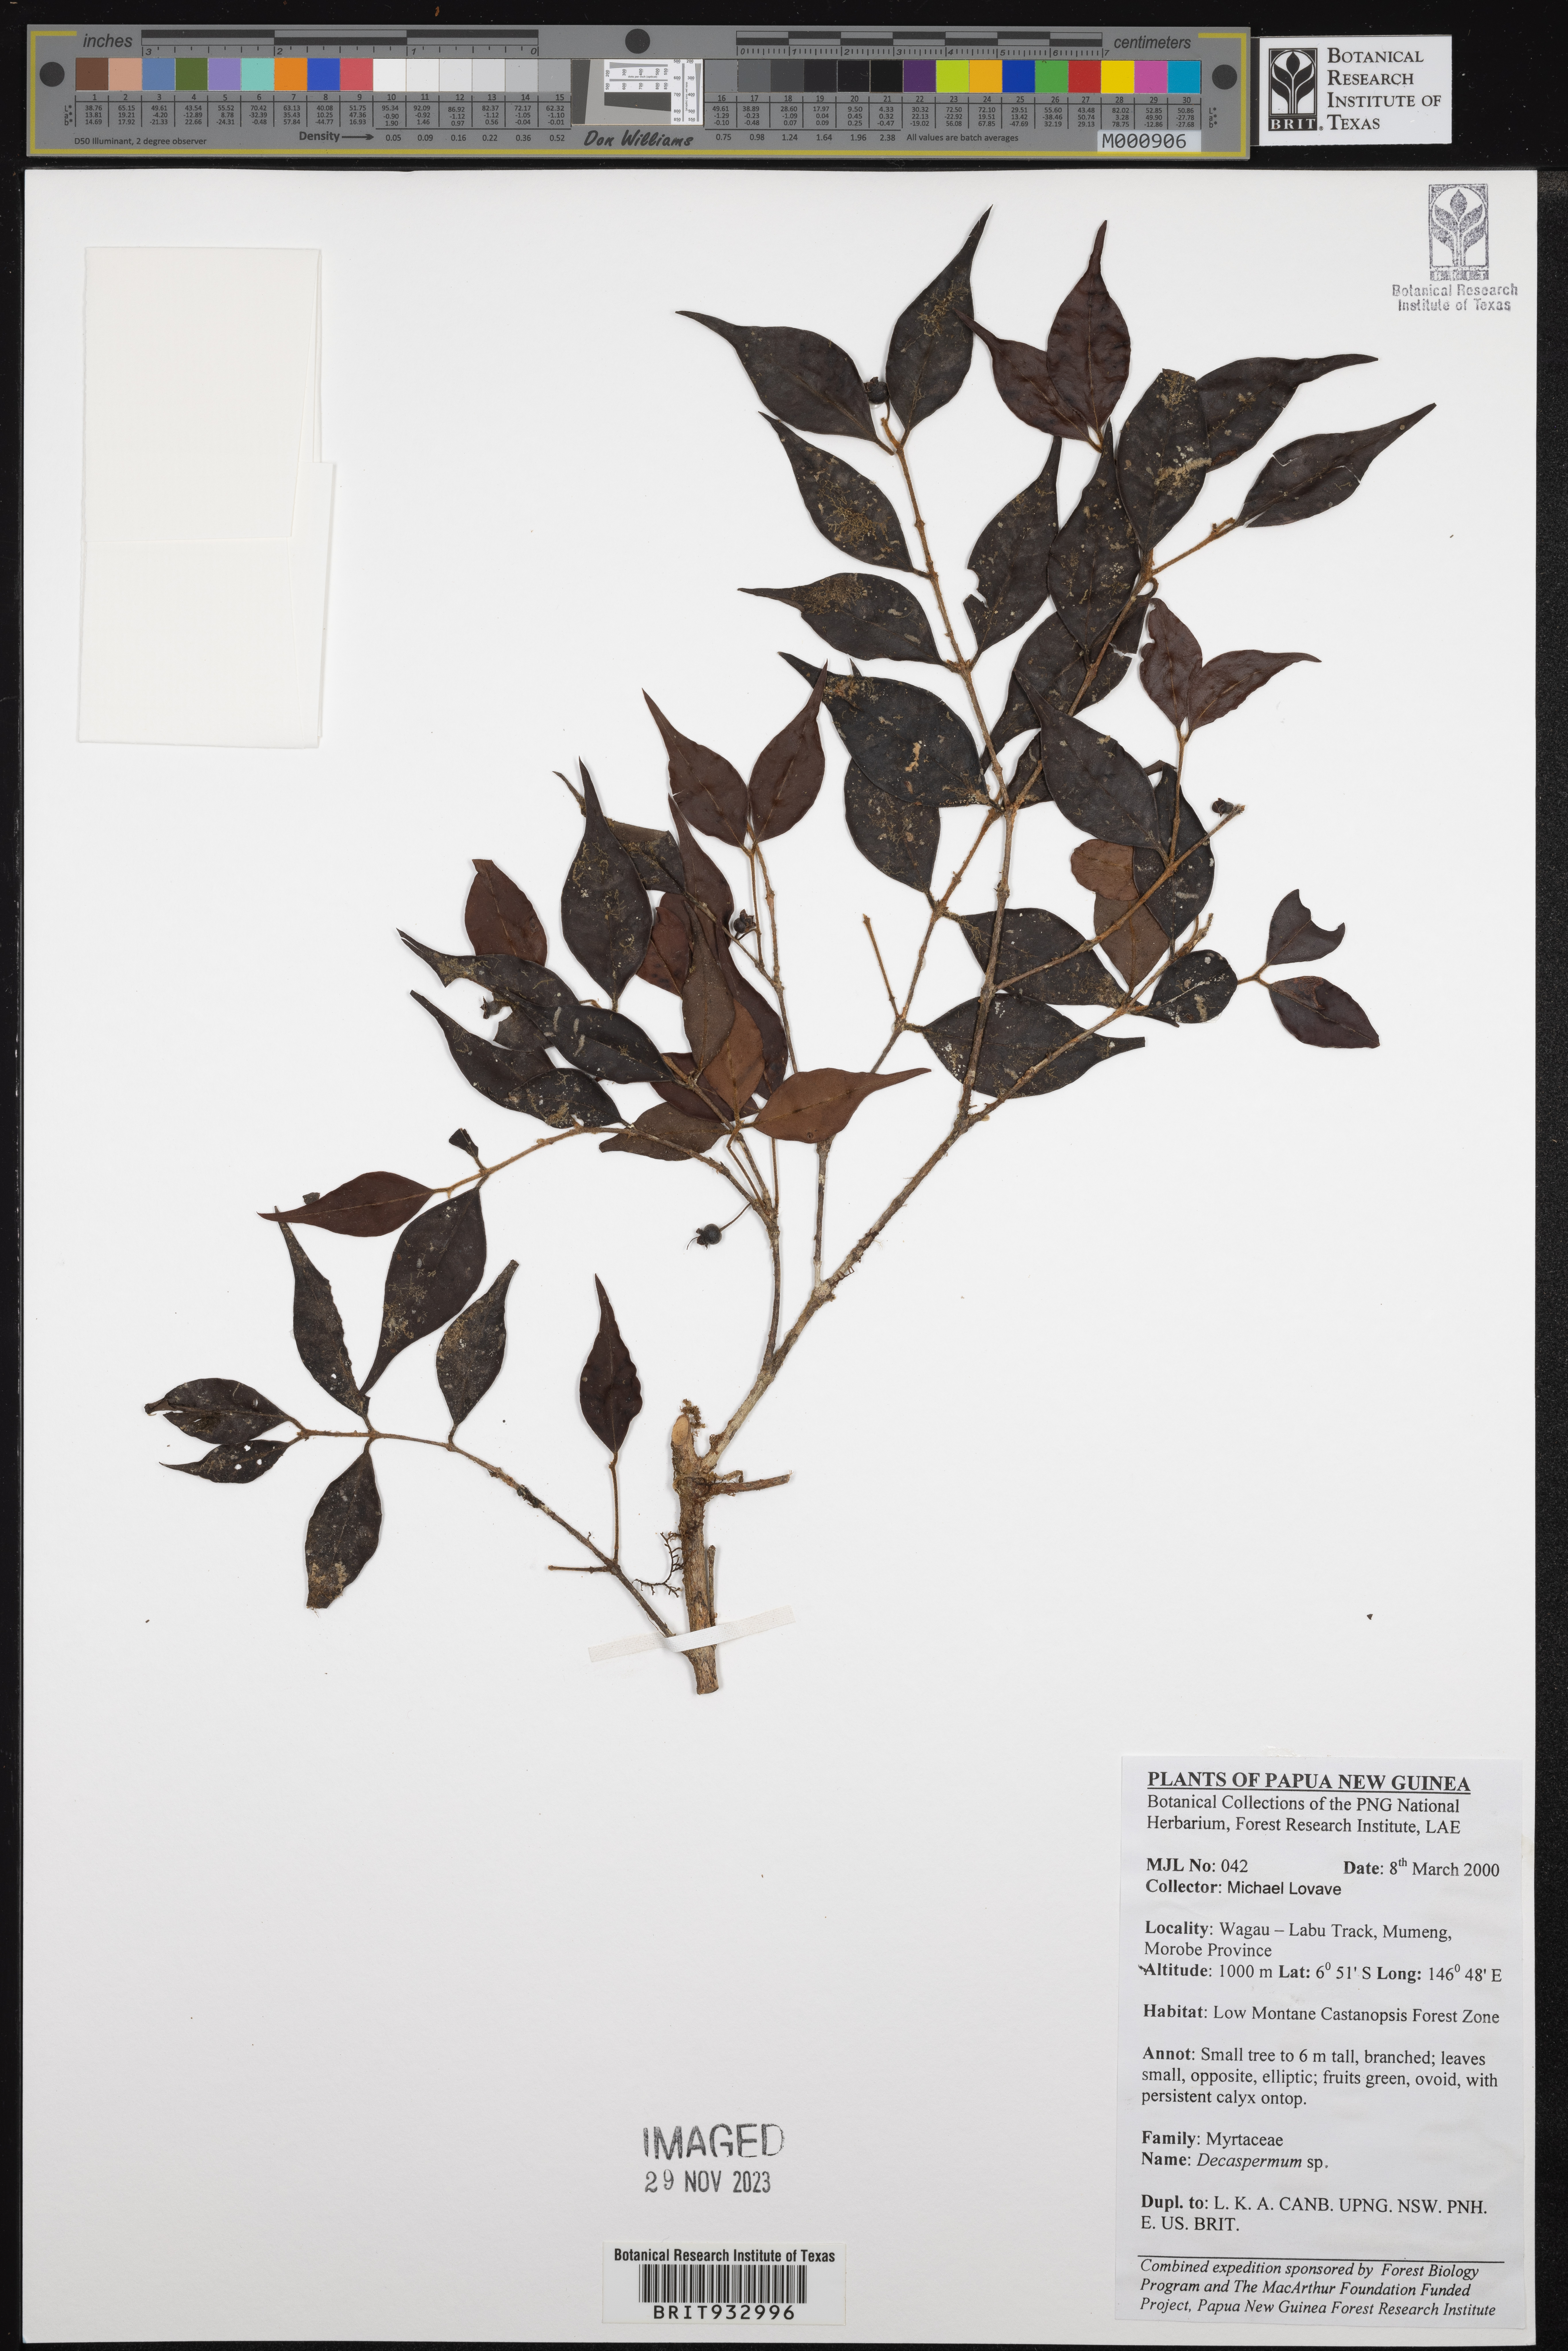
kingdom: Plantae
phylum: Tracheophyta
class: Magnoliopsida
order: Myrtales
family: Myrtaceae
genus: Decaspermum
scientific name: Decaspermum
